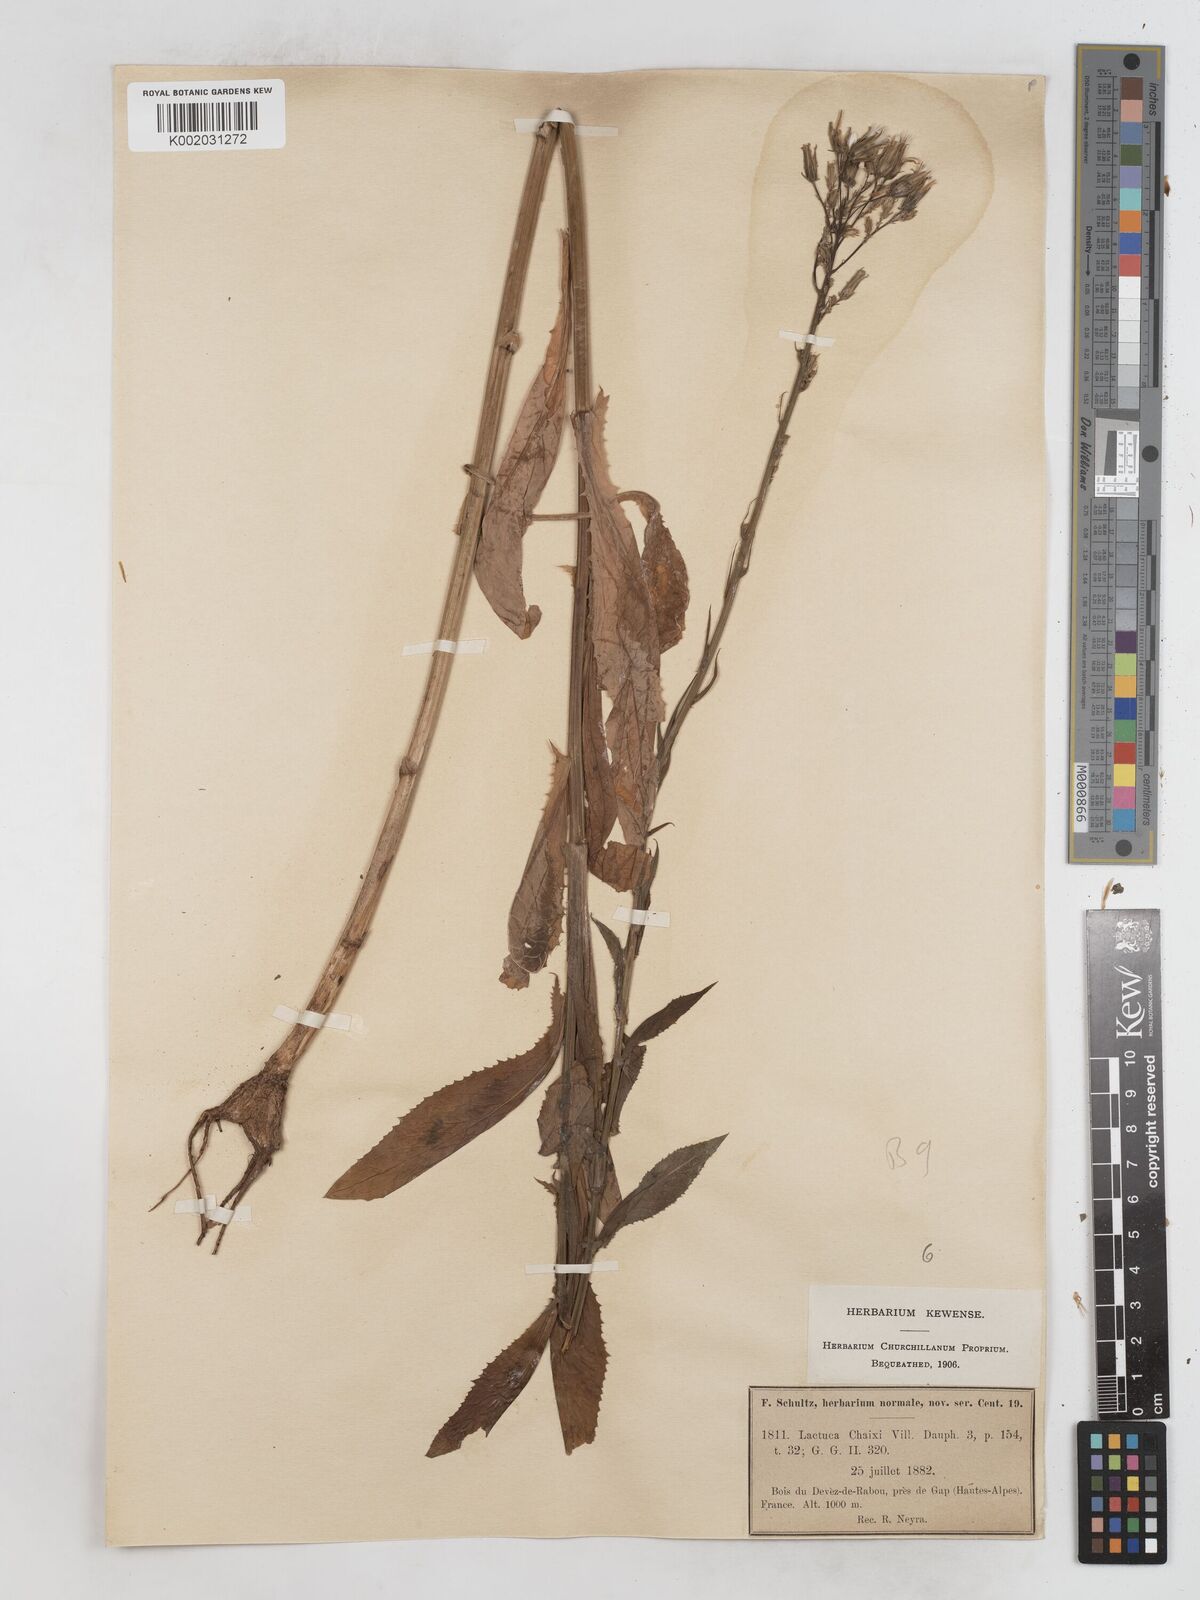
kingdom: Plantae
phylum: Tracheophyta
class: Magnoliopsida
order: Asterales
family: Asteraceae
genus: Lactuca
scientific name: Lactuca quercina
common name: Wild lettuce
